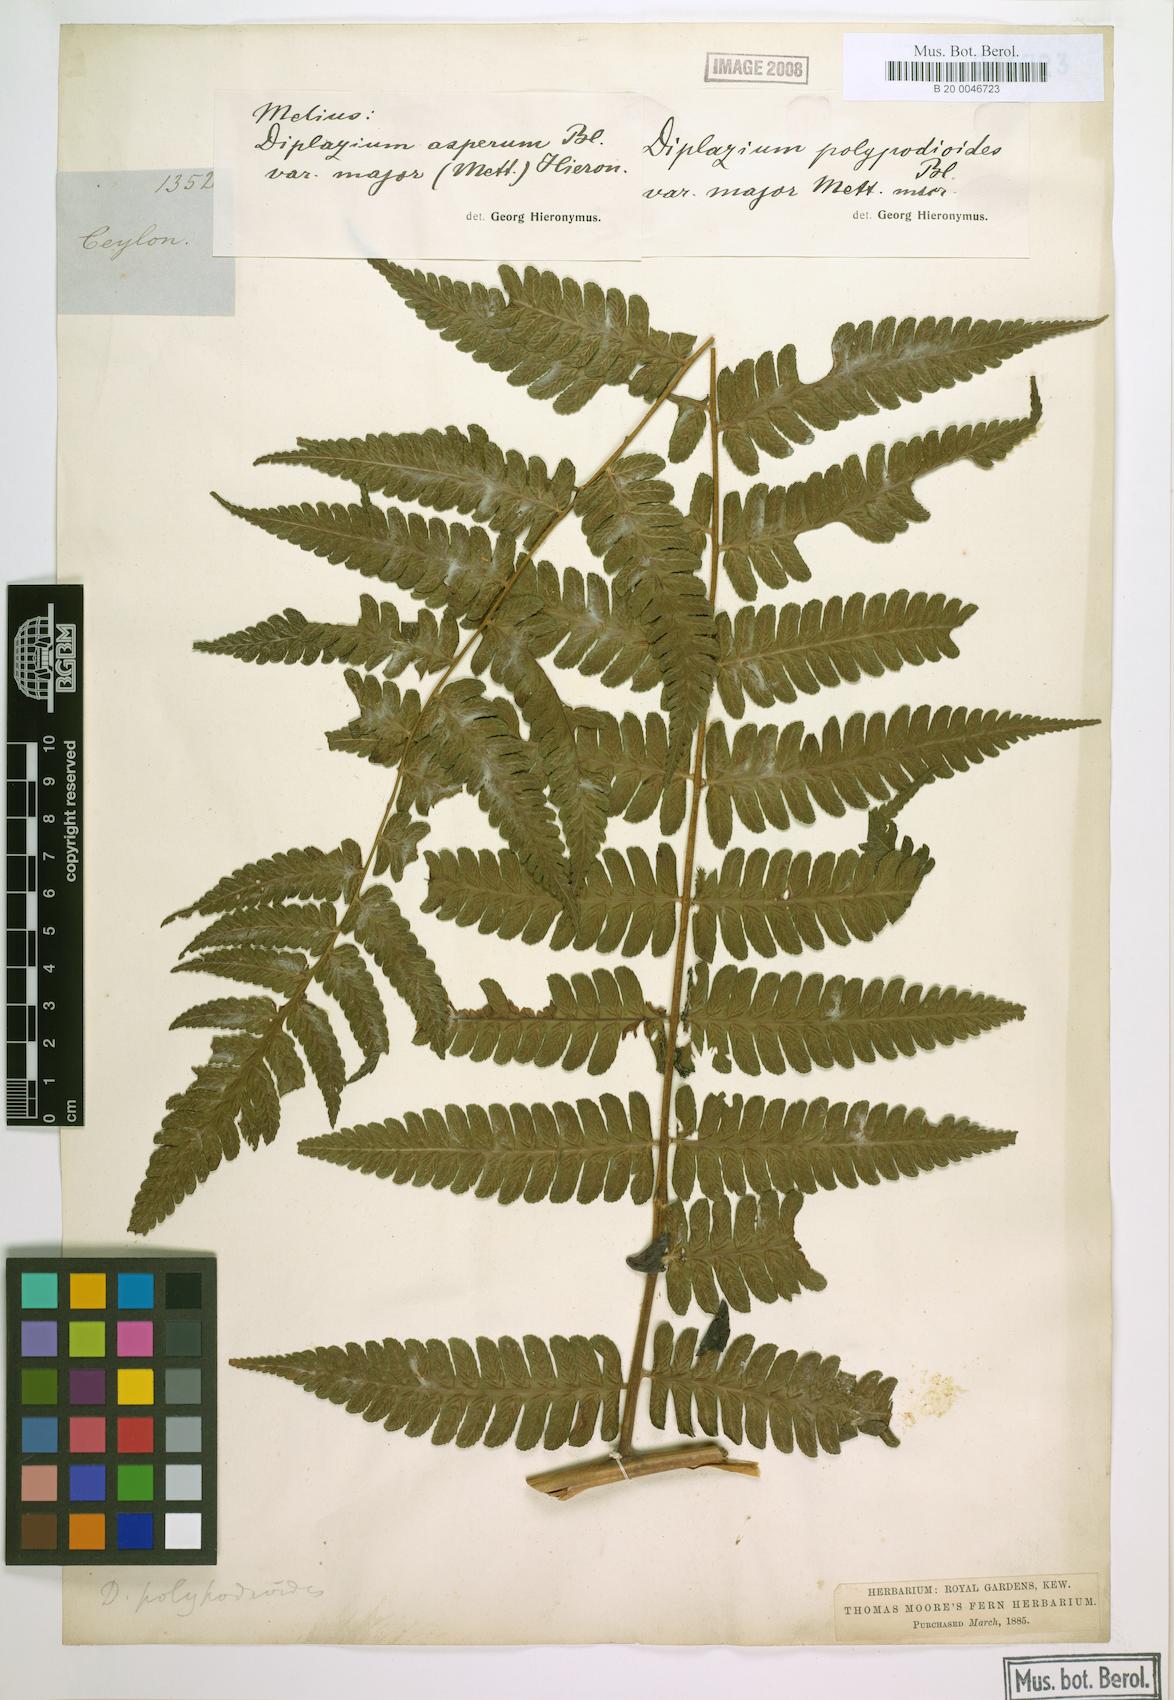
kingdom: Plantae
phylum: Tracheophyta
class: Polypodiopsida
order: Polypodiales
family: Athyriaceae
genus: Diplazium
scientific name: Diplazium polypodioides
